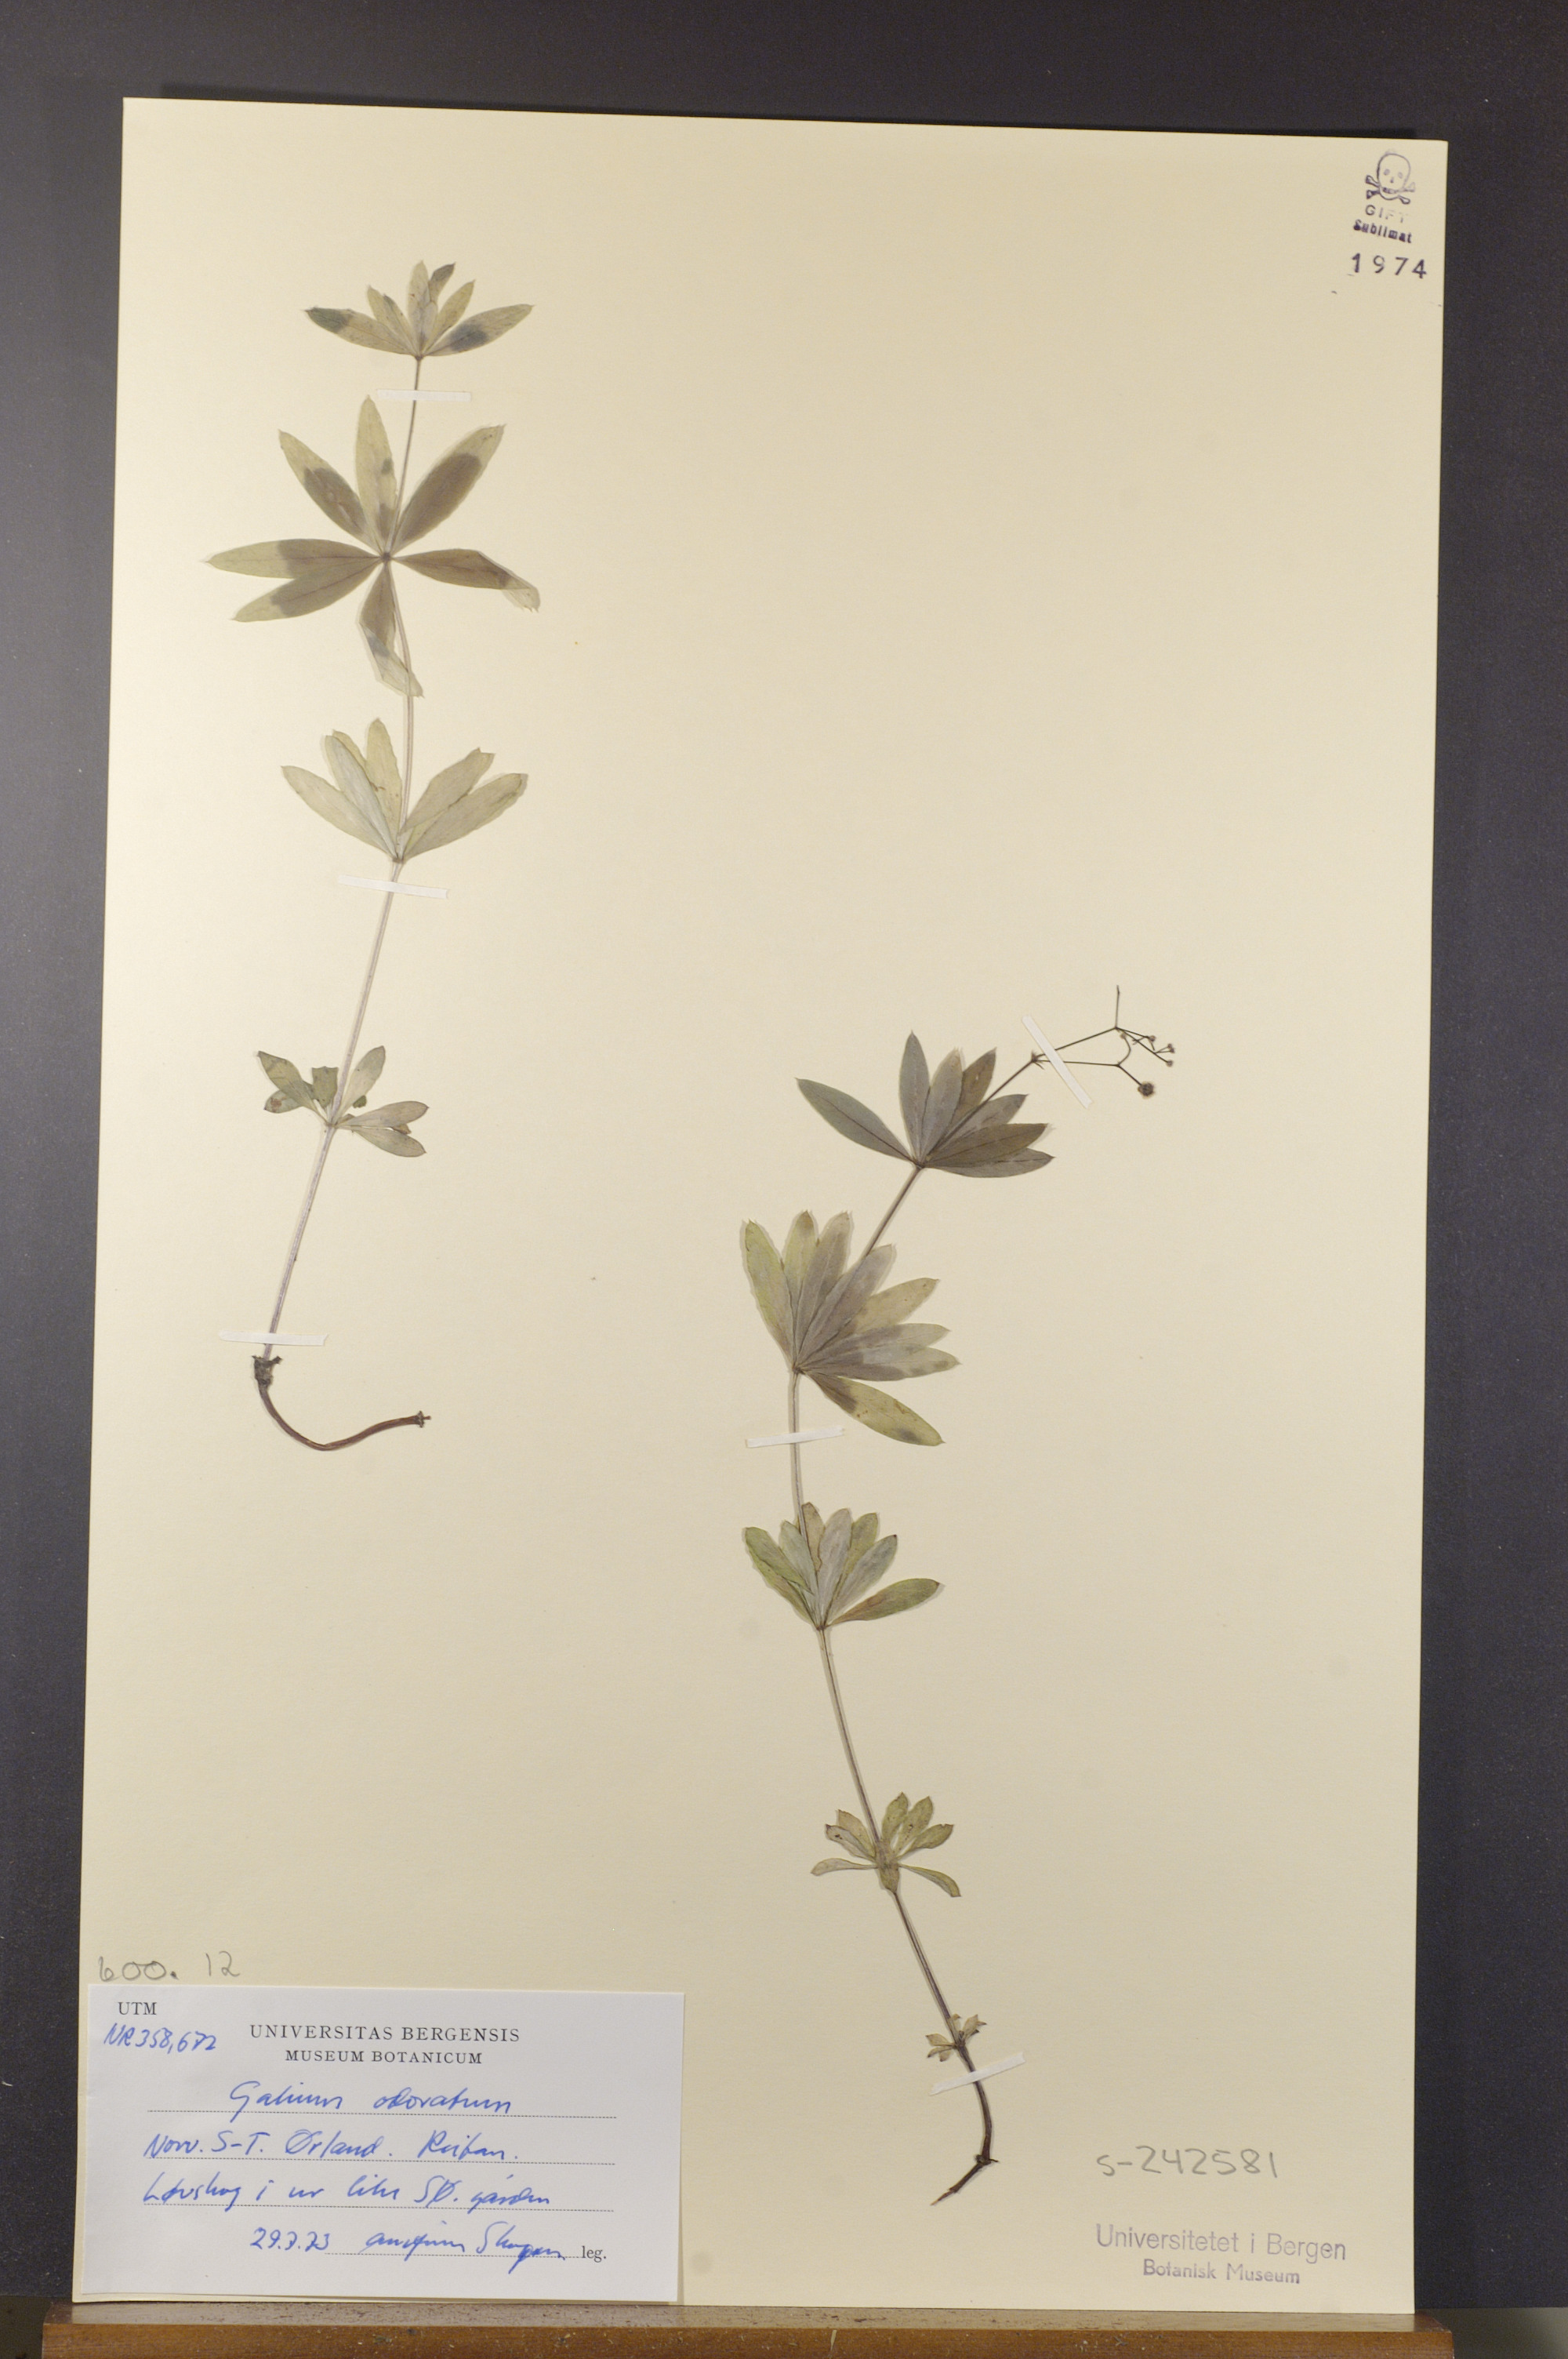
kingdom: Plantae
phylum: Tracheophyta
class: Magnoliopsida
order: Gentianales
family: Rubiaceae
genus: Galium
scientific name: Galium odoratum
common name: Sweet woodruff
